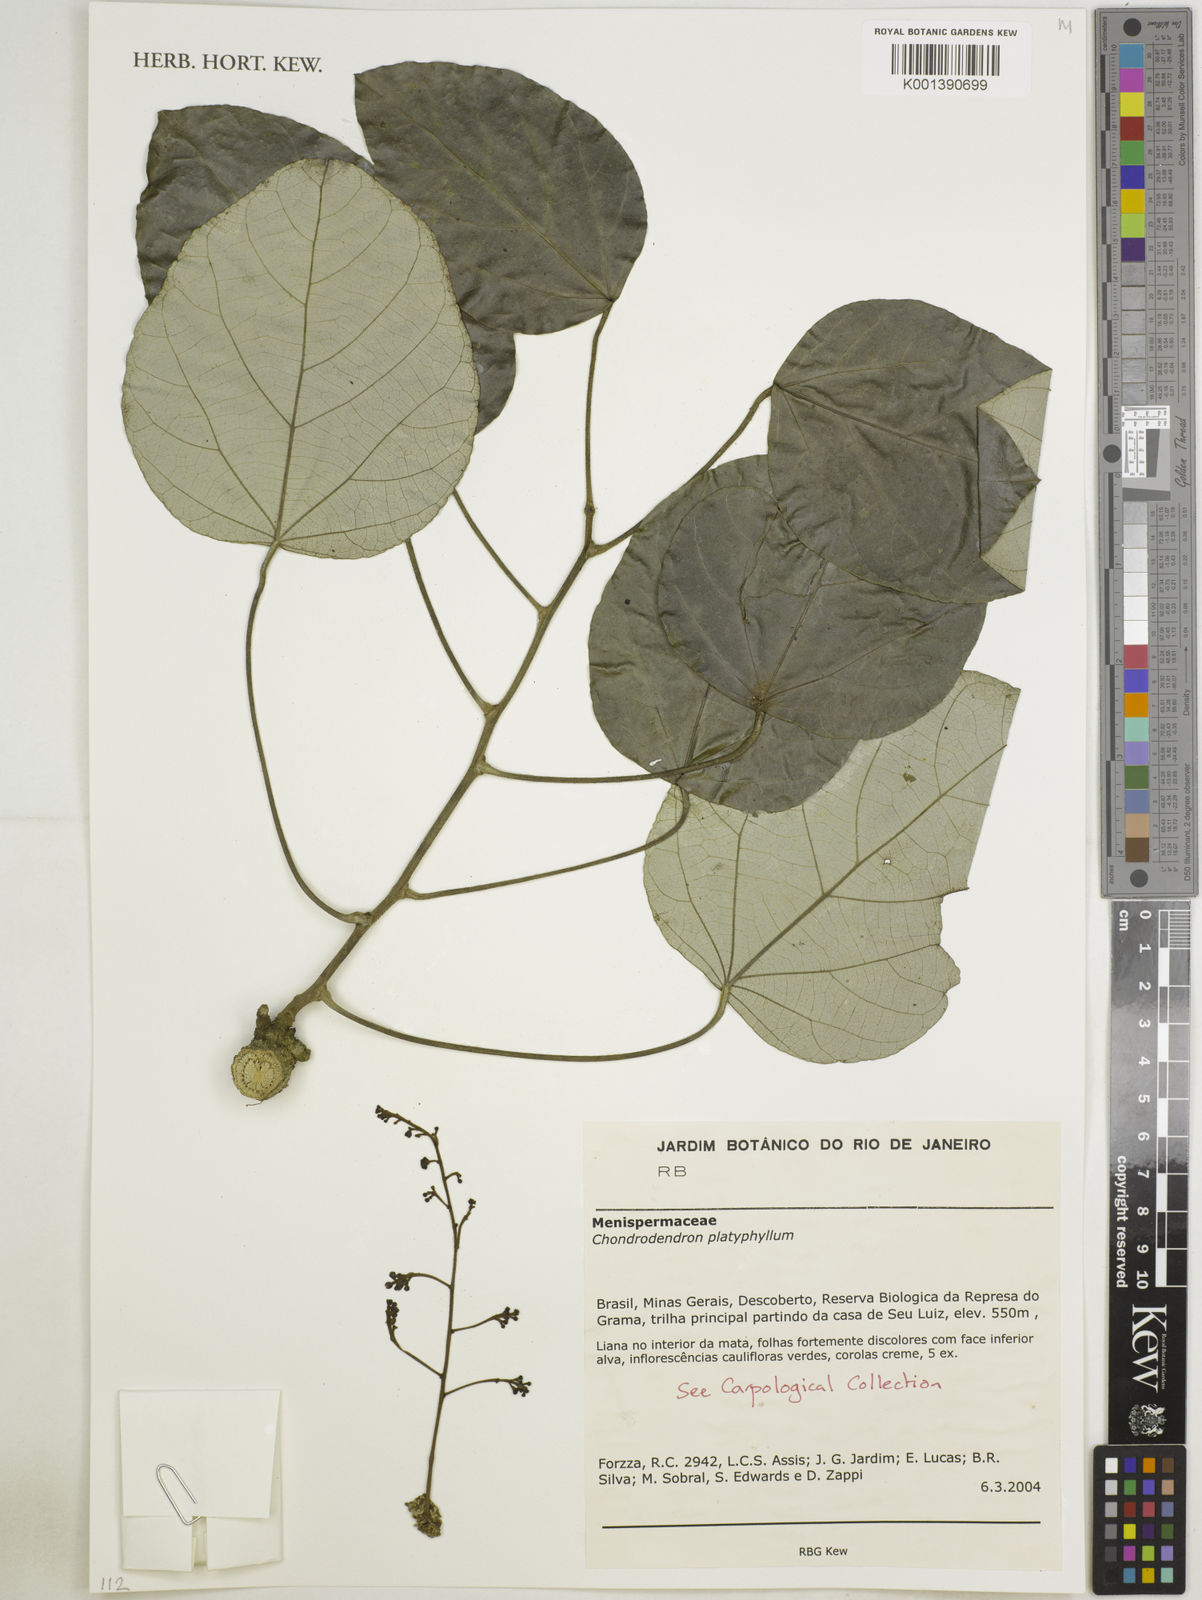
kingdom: Plantae
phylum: Tracheophyta
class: Magnoliopsida
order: Ranunculales
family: Menispermaceae
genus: Chondrodendron
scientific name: Chondrodendron platyphyllum
